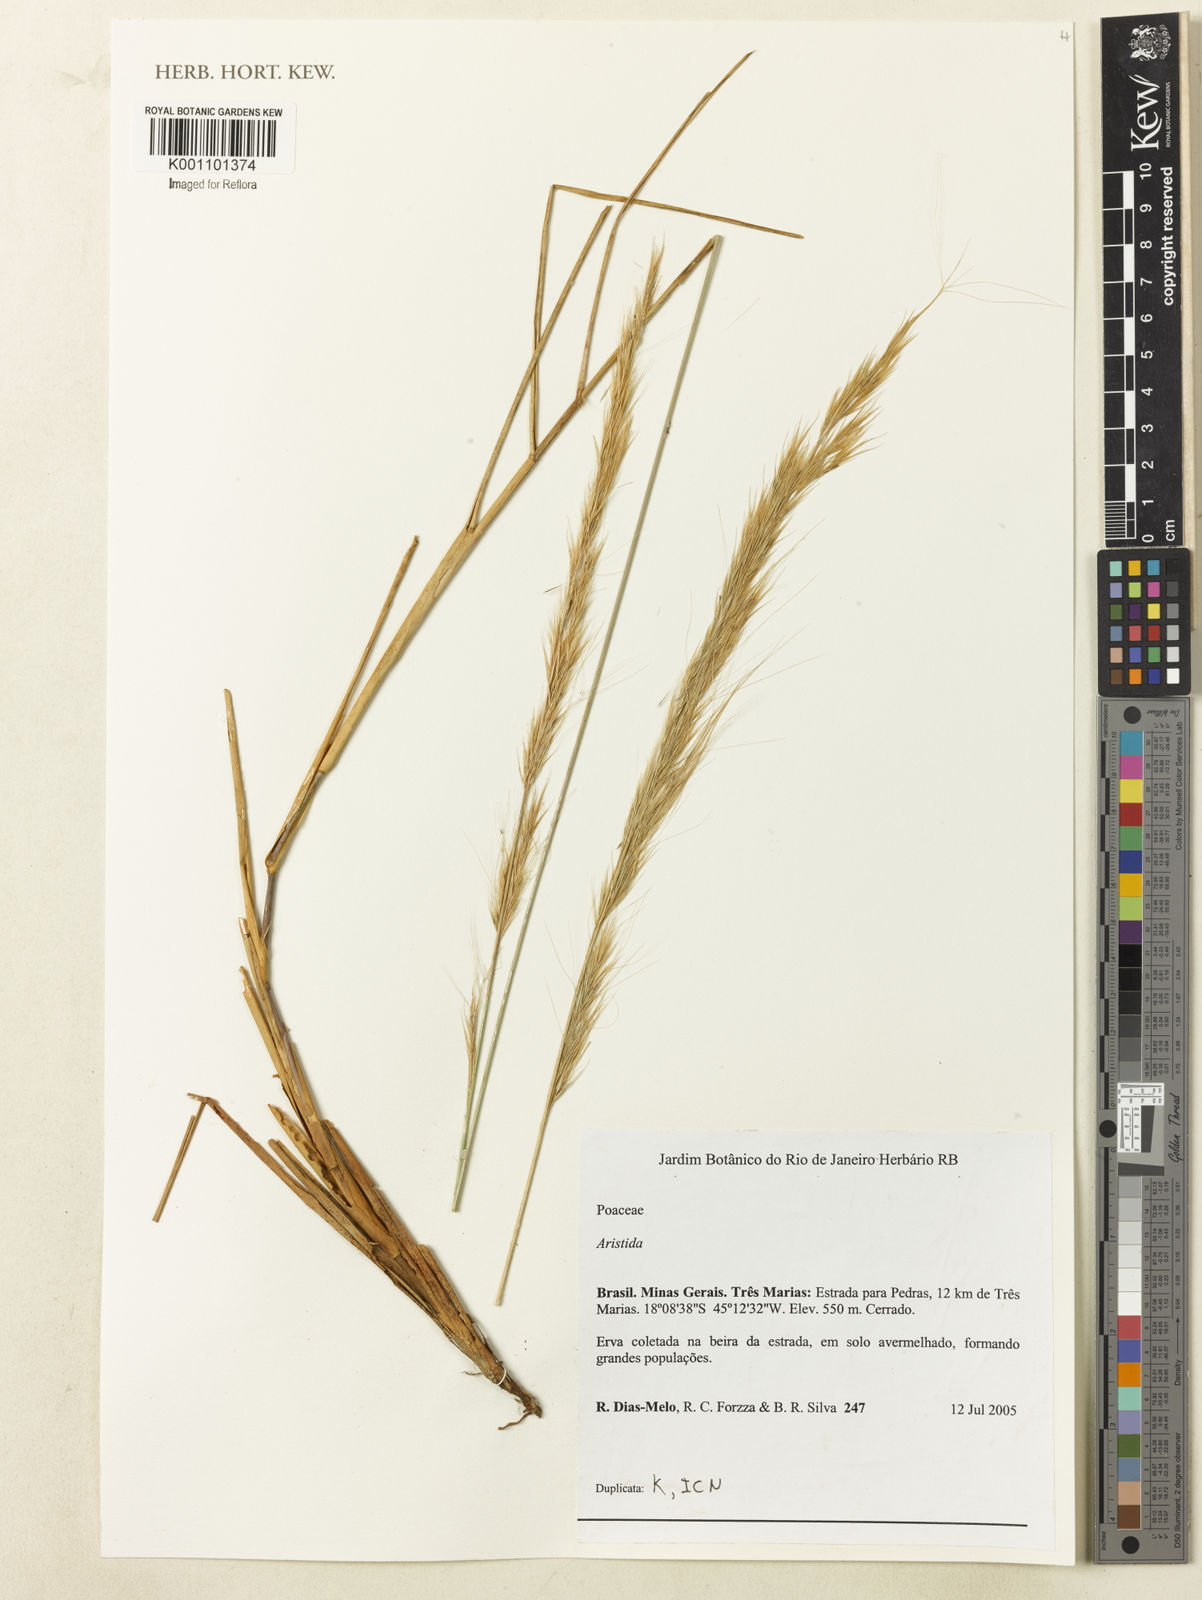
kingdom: Plantae
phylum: Tracheophyta
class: Liliopsida
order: Poales
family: Poaceae
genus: Aristida
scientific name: Aristida
